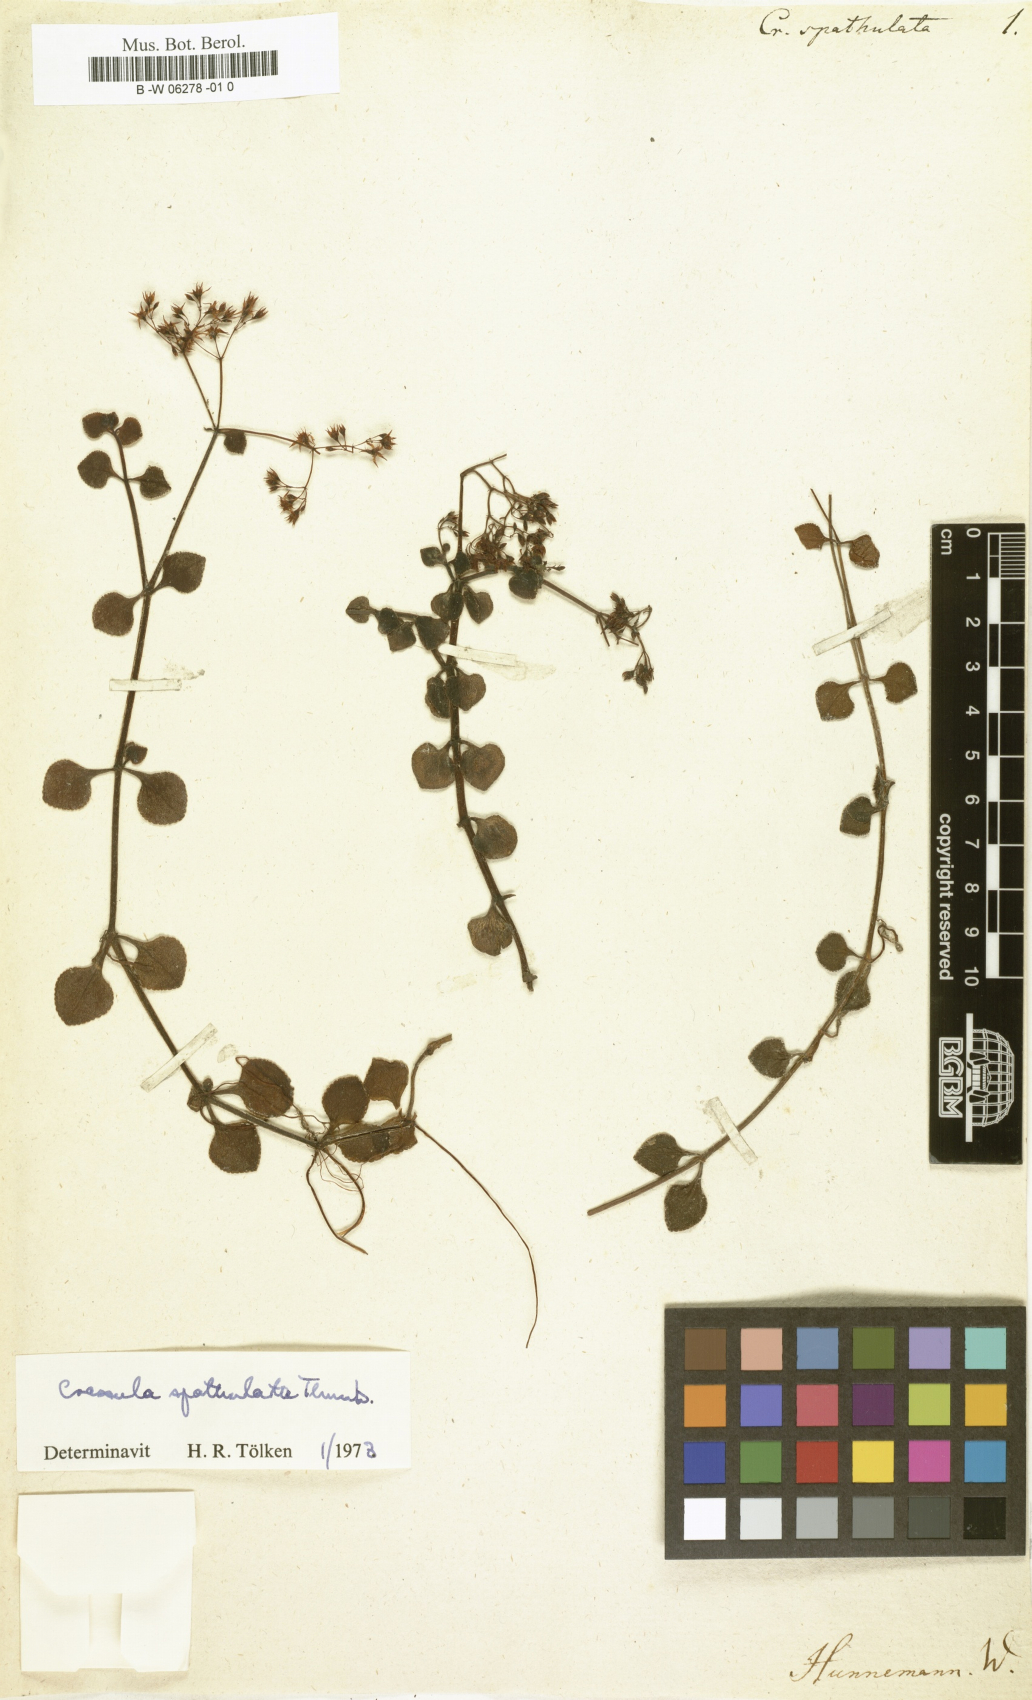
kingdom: Plantae
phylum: Tracheophyta
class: Magnoliopsida
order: Saxifragales
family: Crassulaceae
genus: Crassula
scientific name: Crassula spathulata
